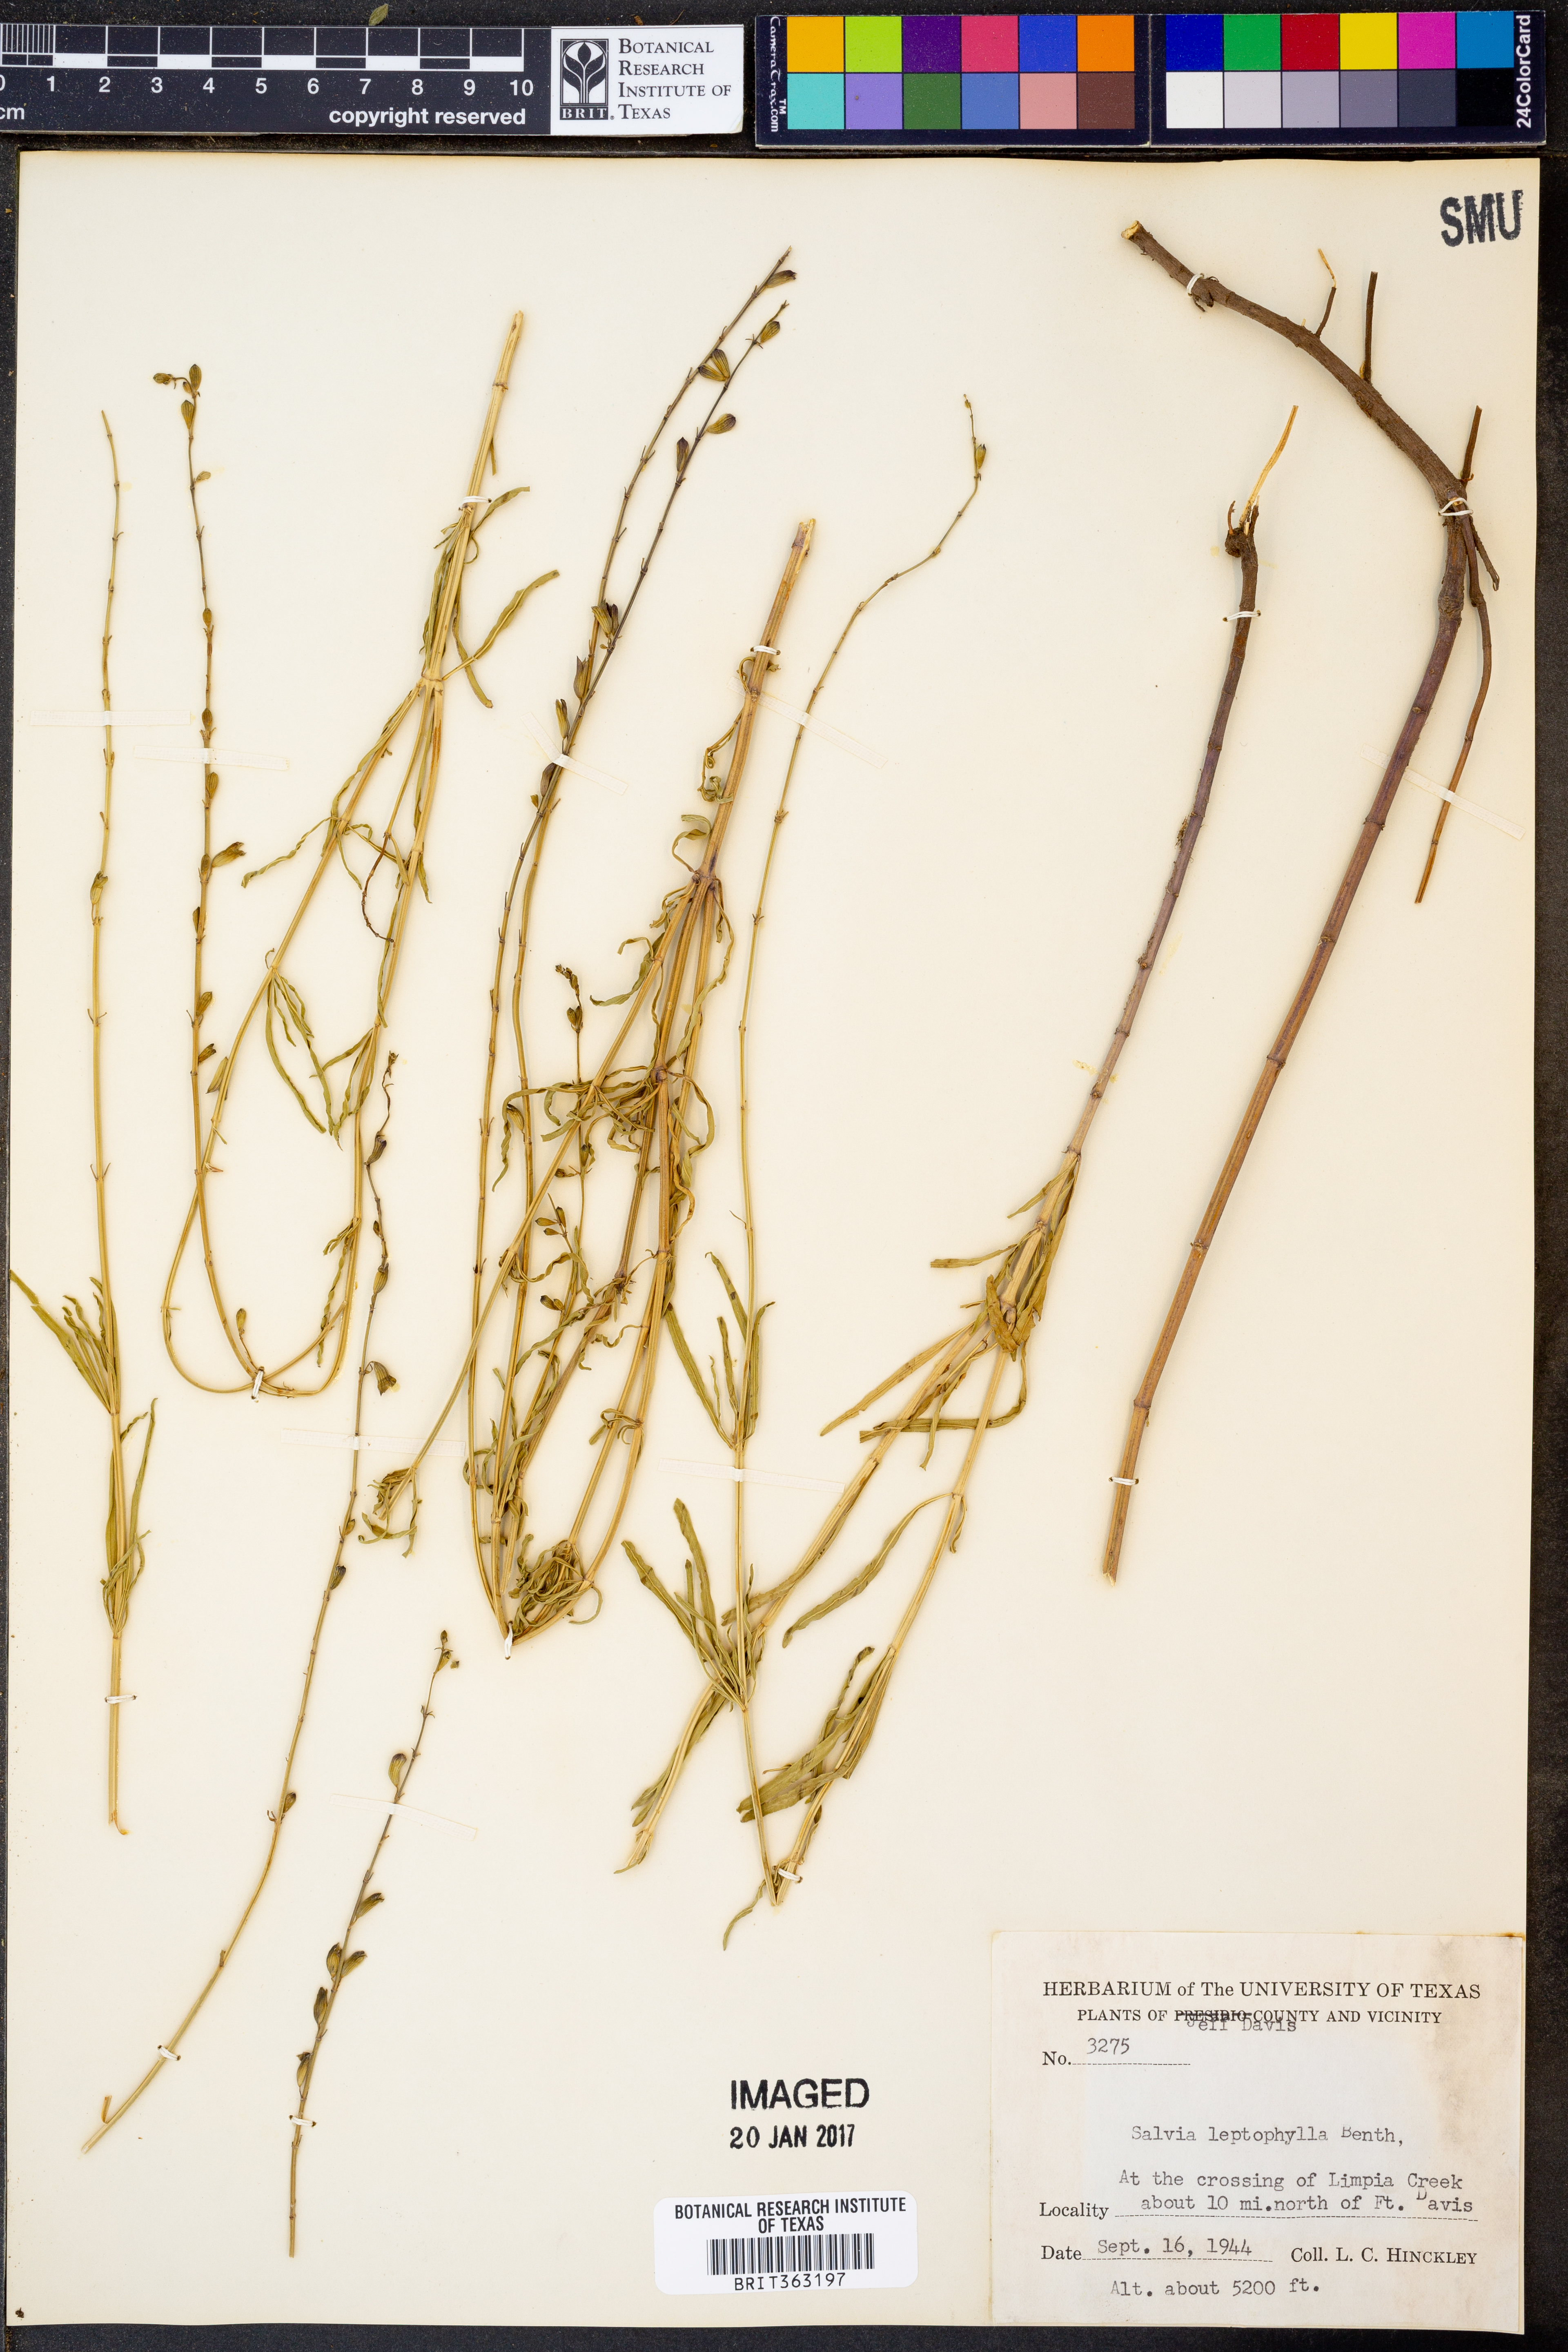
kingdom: Plantae
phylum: Tracheophyta
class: Magnoliopsida
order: Lamiales
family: Lamiaceae
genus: Salvia
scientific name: Salvia reptans
